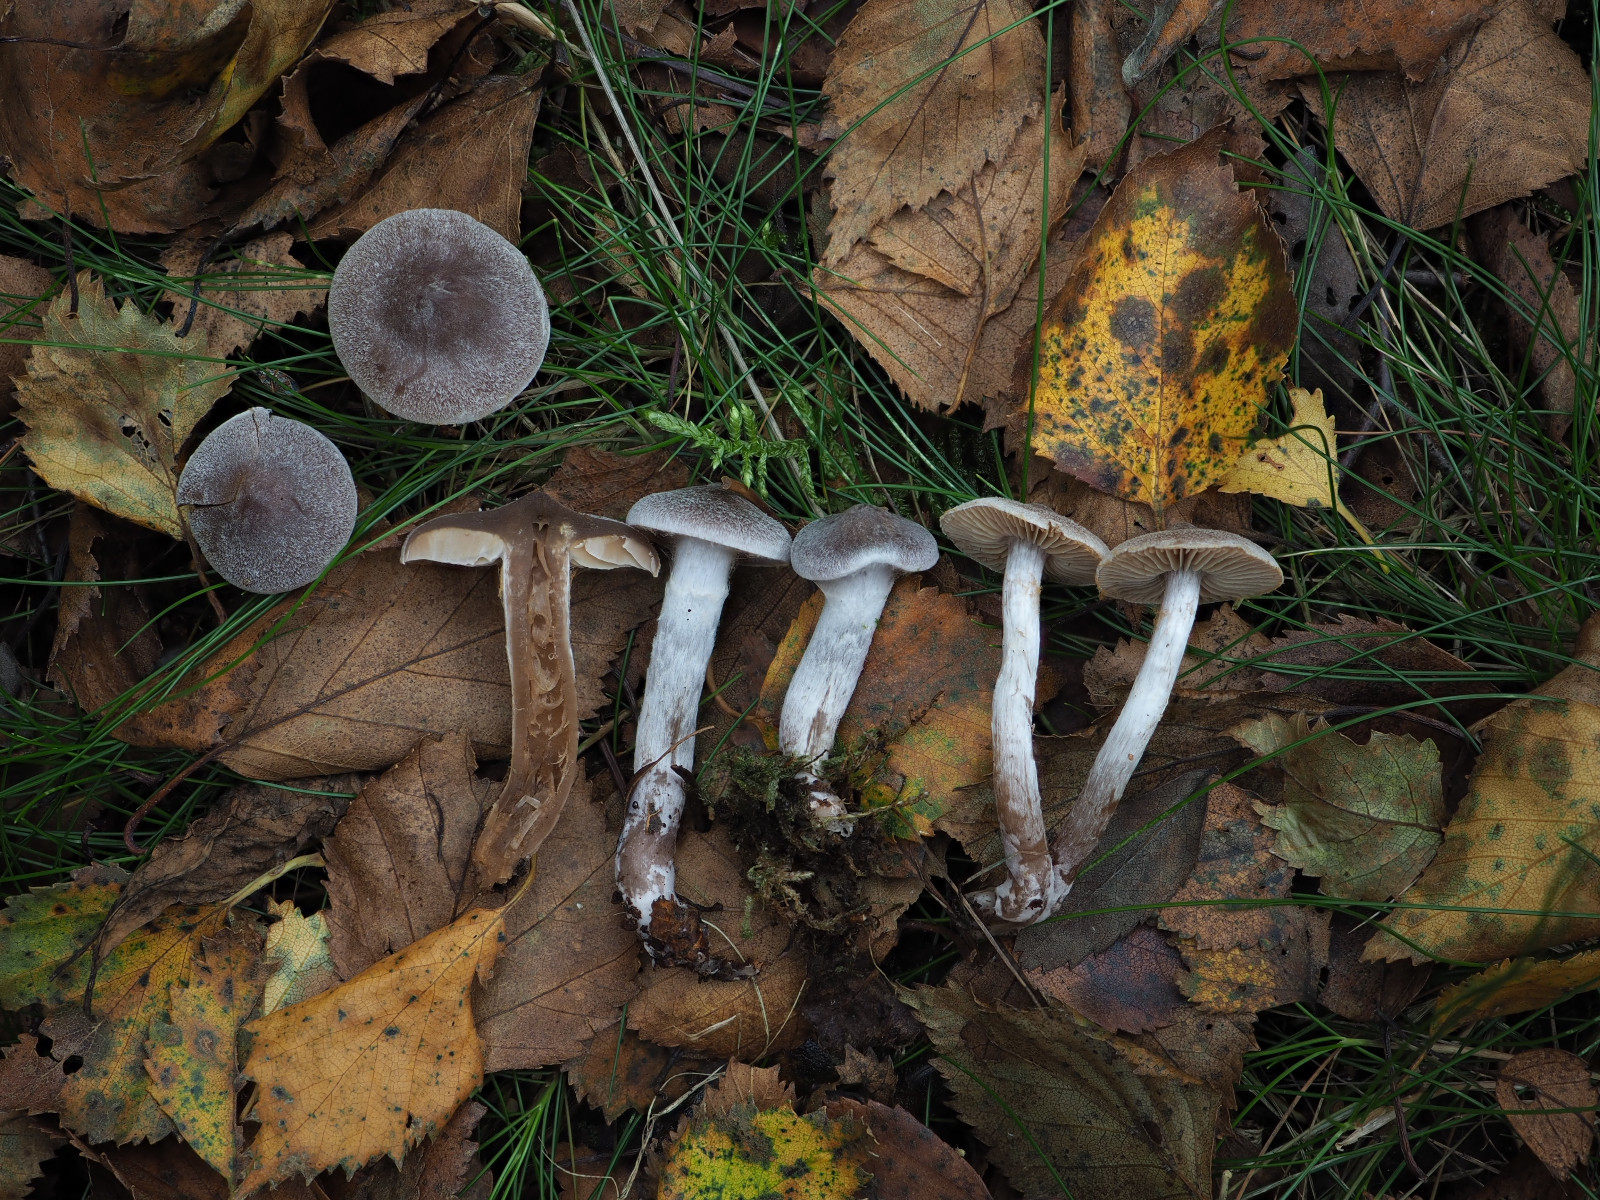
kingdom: Fungi
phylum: Basidiomycota
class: Agaricomycetes
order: Agaricales
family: Cortinariaceae
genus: Cortinarius
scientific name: Cortinarius hemitrichus
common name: hvidfnugget slørhat
